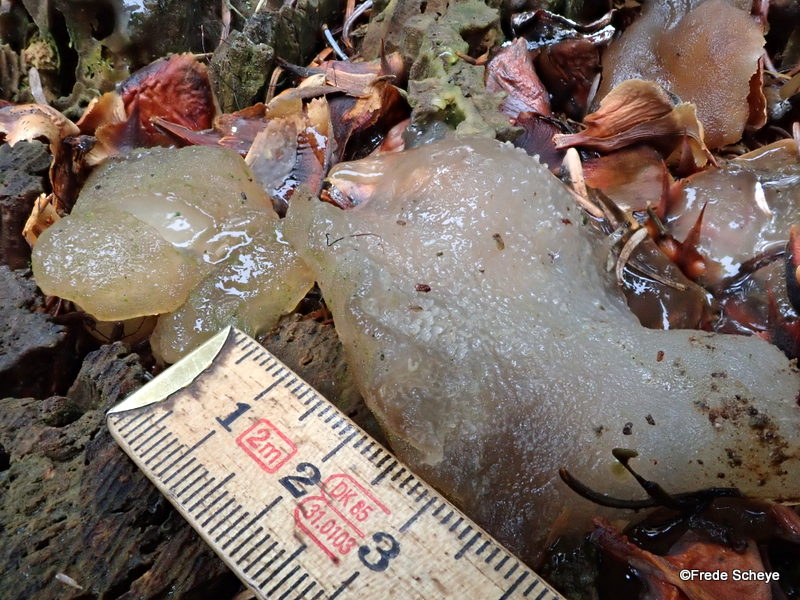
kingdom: Fungi
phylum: Basidiomycota
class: Agaricomycetes
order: Auriculariales
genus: Pseudohydnum
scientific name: Pseudohydnum gelatinosum
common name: bævretand
